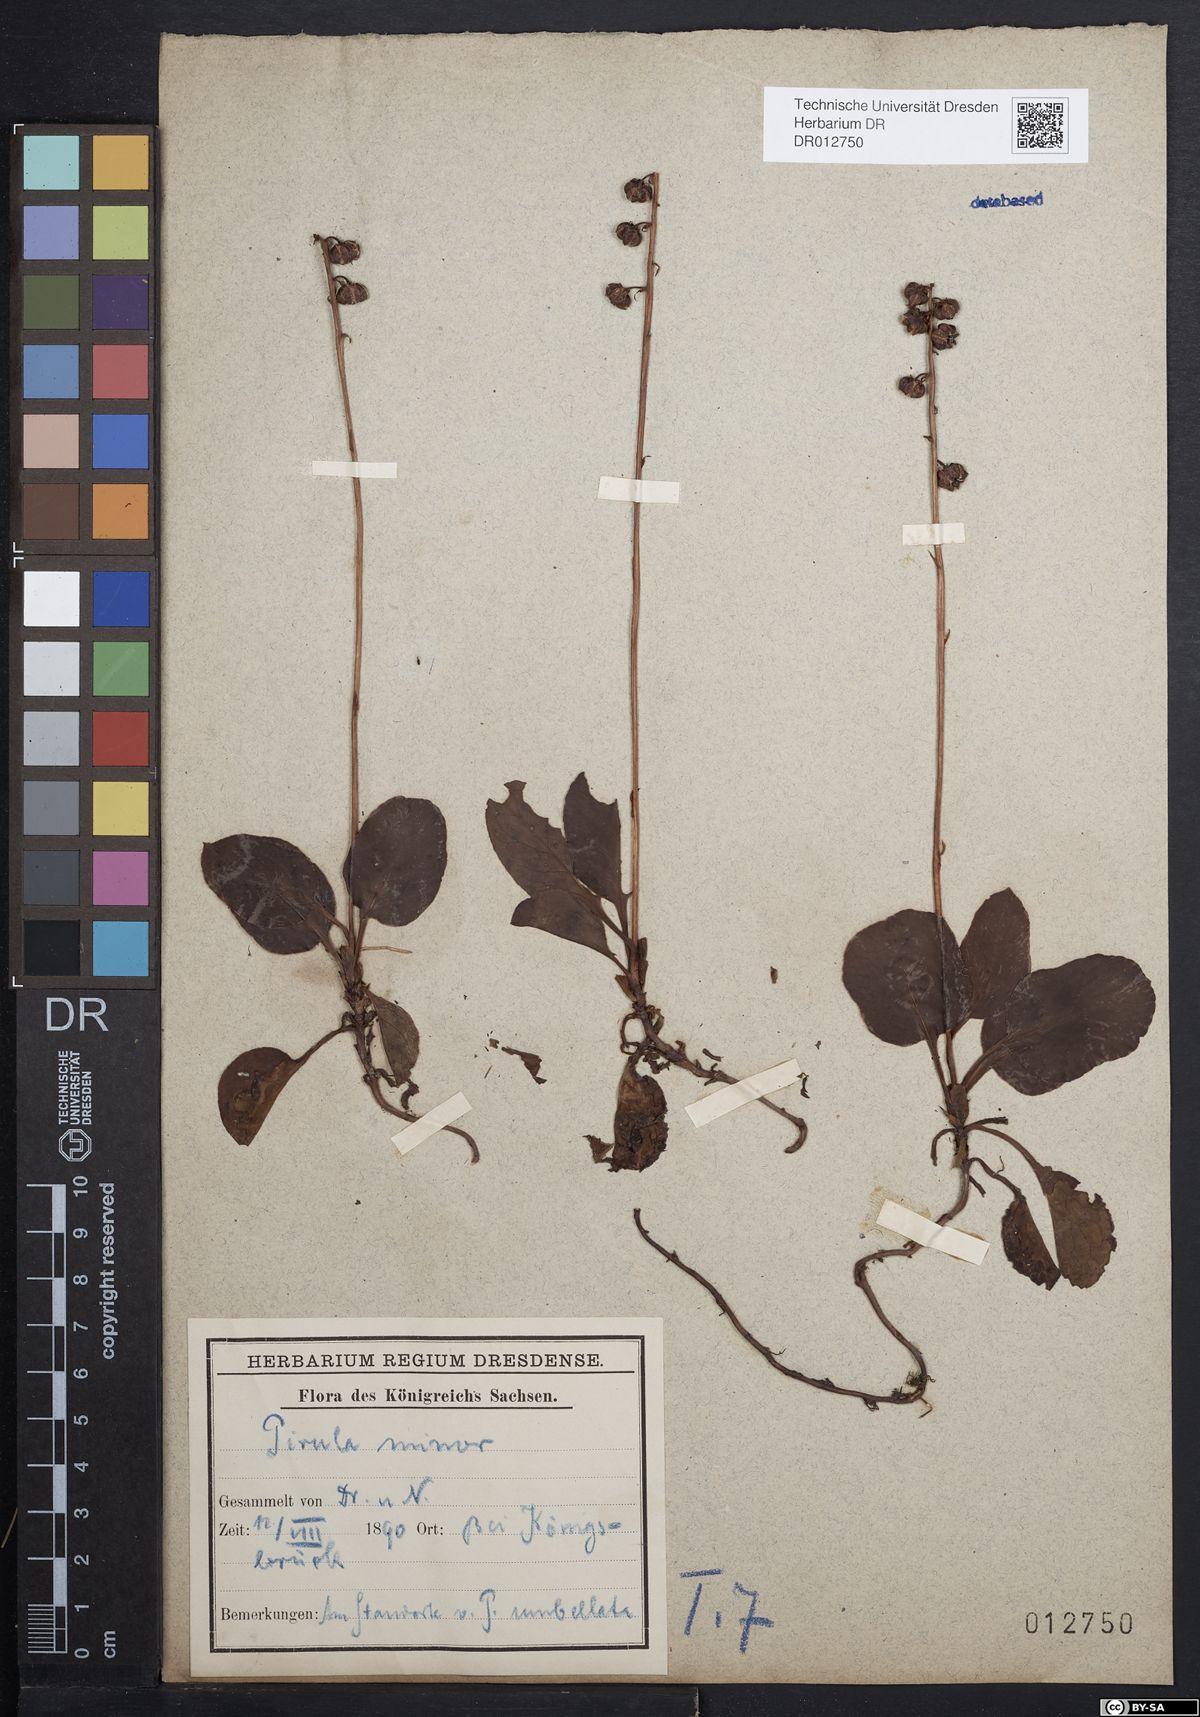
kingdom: Plantae
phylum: Tracheophyta
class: Magnoliopsida
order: Ericales
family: Ericaceae
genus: Pyrola
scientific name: Pyrola minor
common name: Common wintergreen
